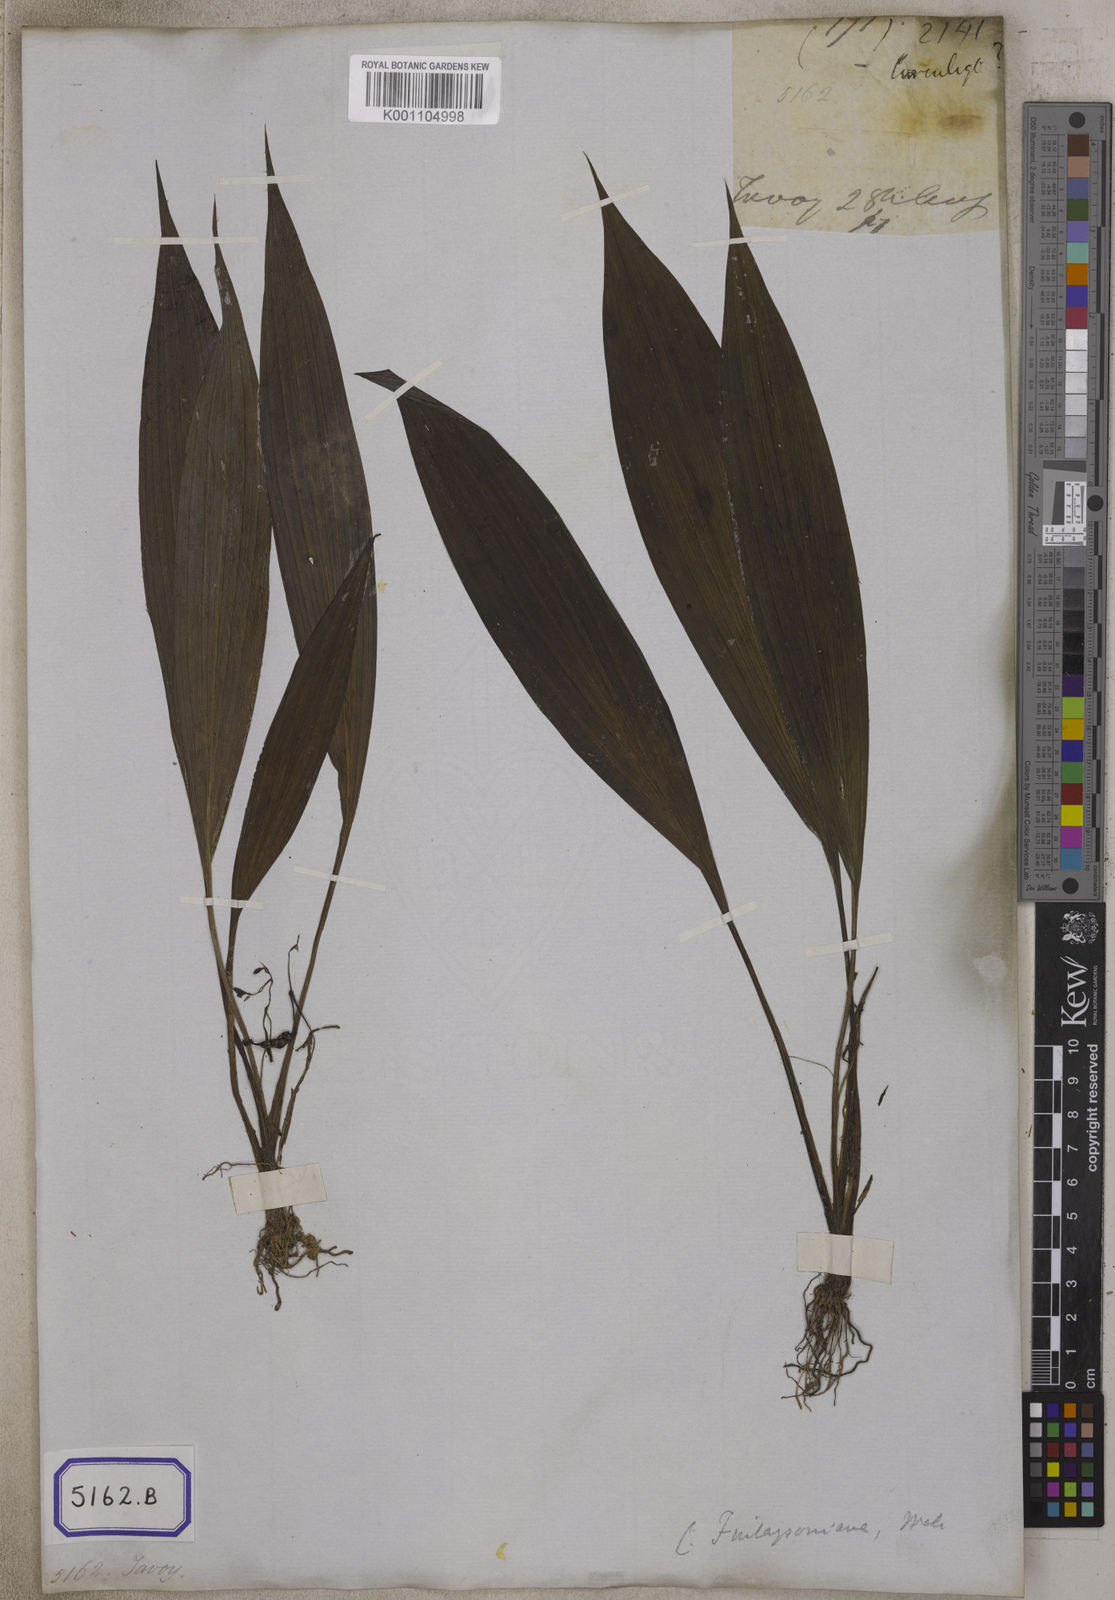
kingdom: Plantae
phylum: Tracheophyta
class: Liliopsida
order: Asparagales
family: Hypoxidaceae
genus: Curculigo
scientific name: Curculigo
